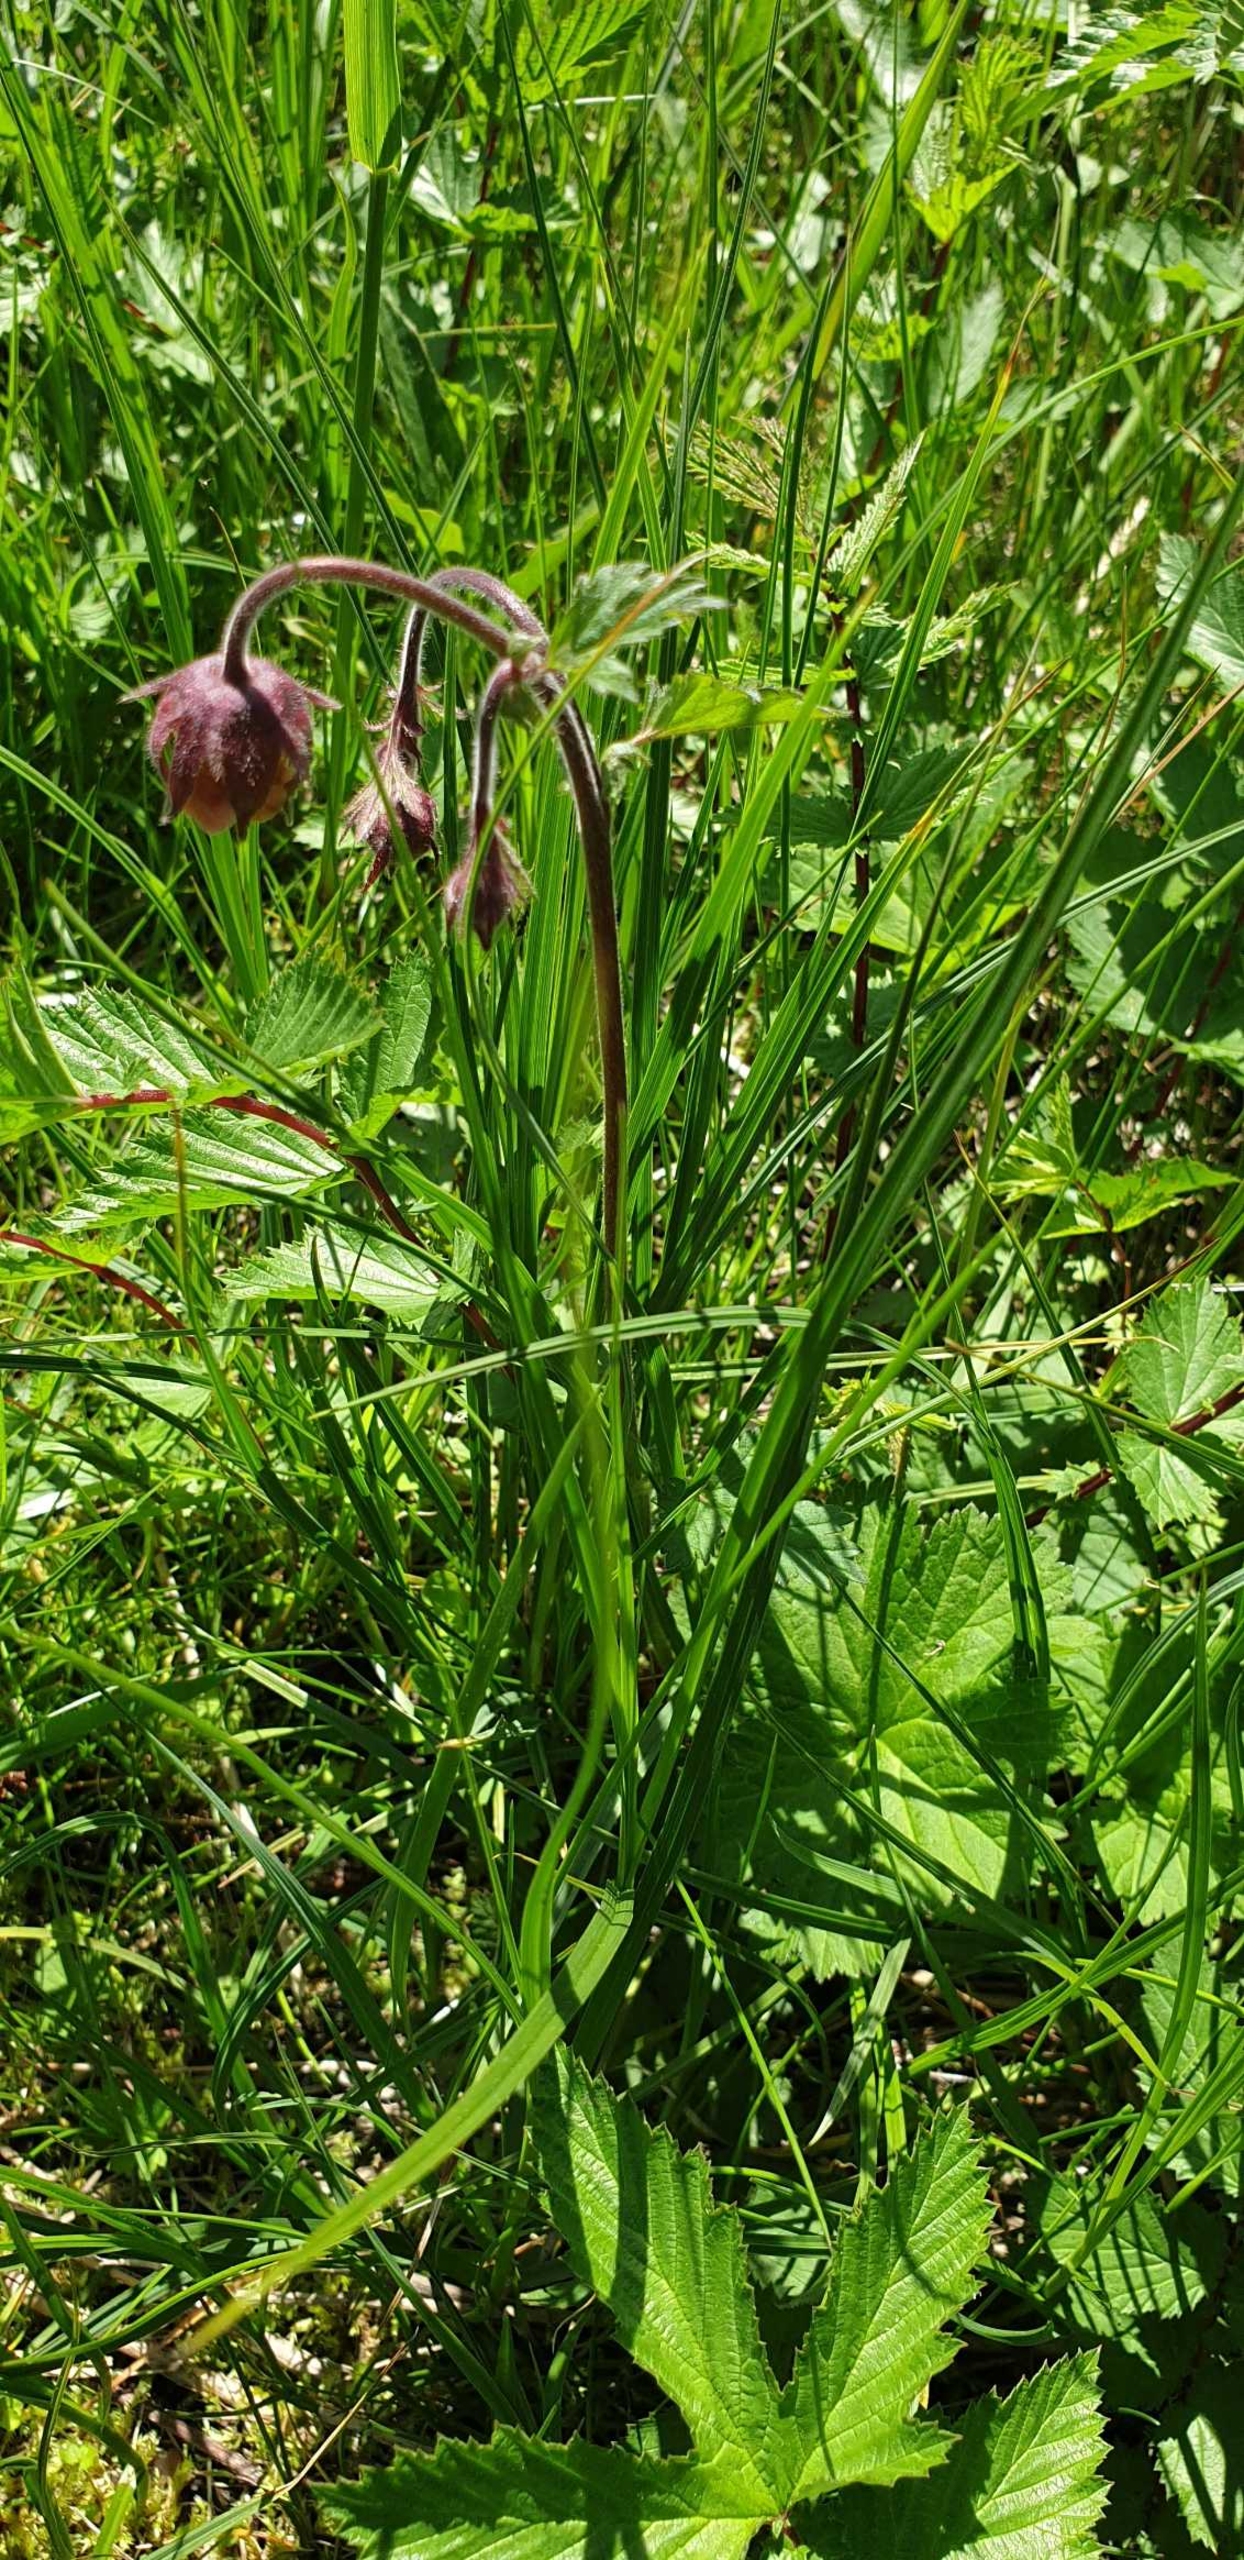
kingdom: Plantae
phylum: Tracheophyta
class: Magnoliopsida
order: Rosales
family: Rosaceae
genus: Geum
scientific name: Geum rivale
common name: Eng-nellikerod
